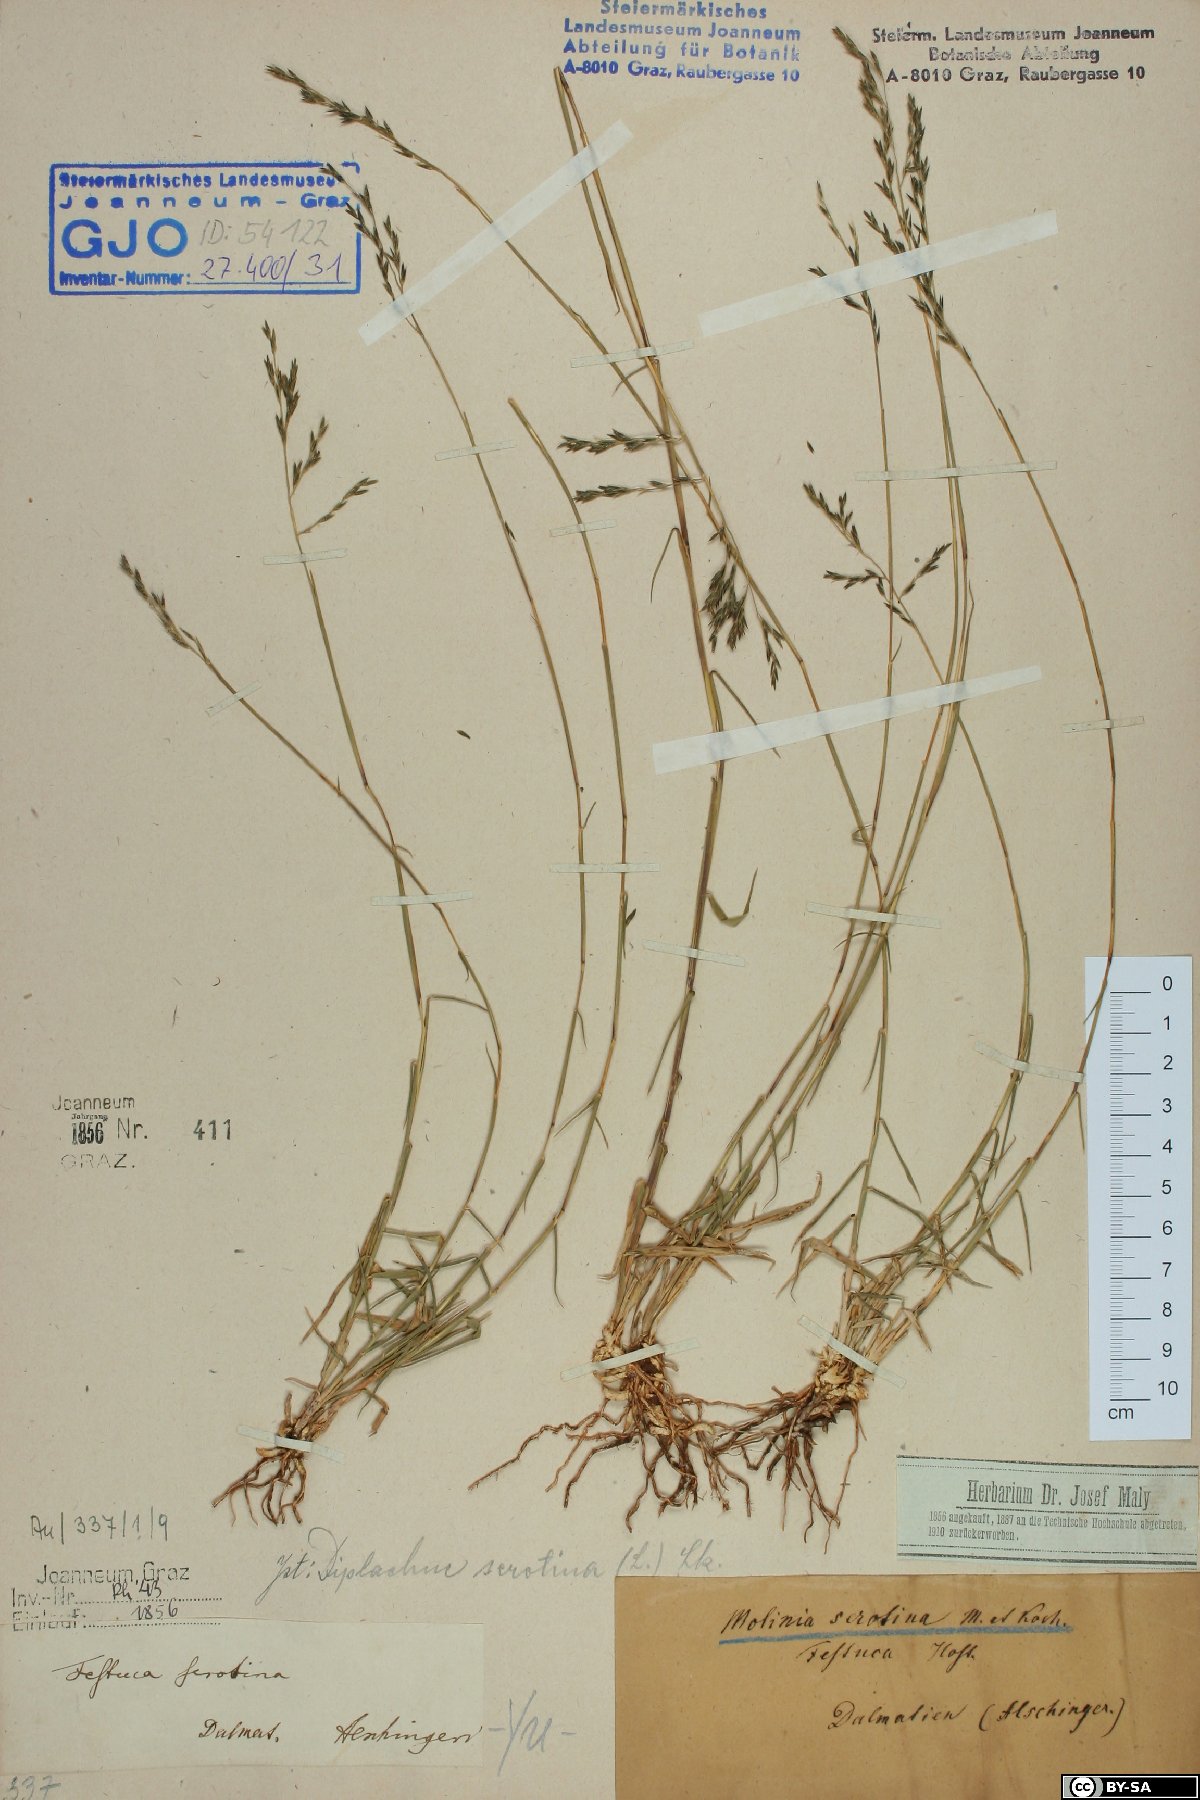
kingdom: Plantae
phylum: Tracheophyta
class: Liliopsida
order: Poales
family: Poaceae
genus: Cleistogenes
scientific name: Cleistogenes serotina
